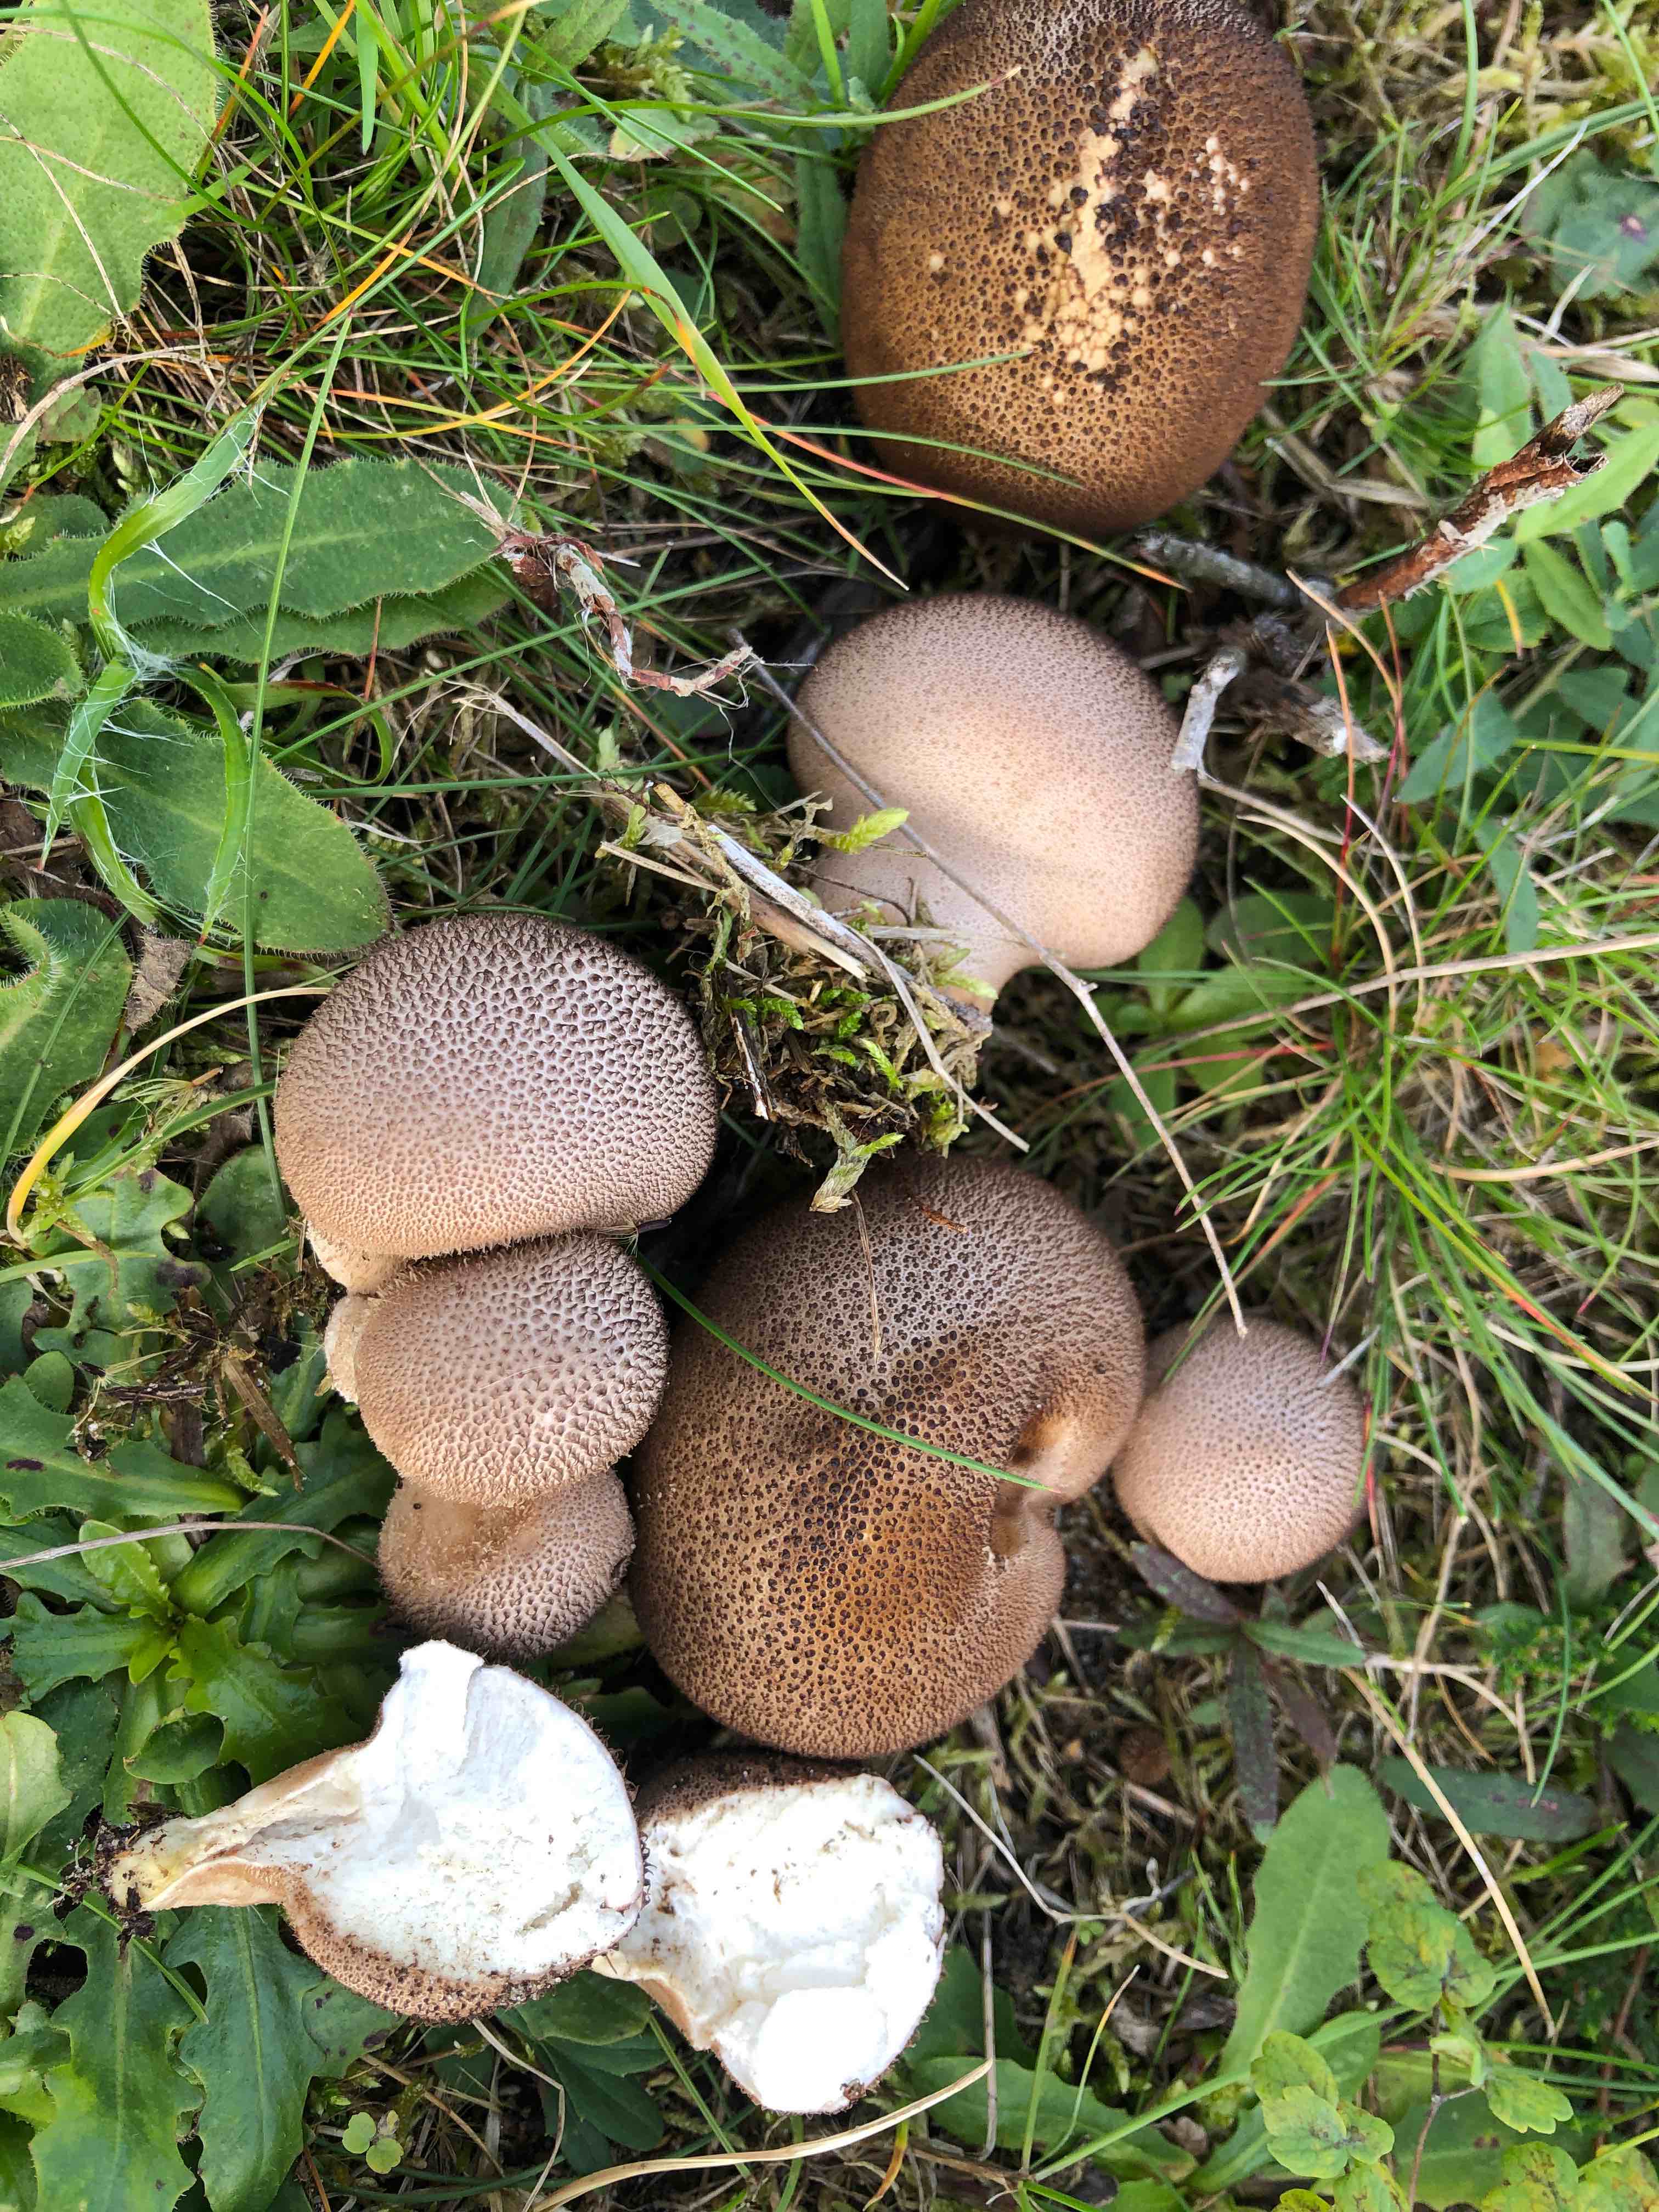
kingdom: Fungi
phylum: Basidiomycota
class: Agaricomycetes
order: Agaricales
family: Lycoperdaceae
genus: Lycoperdon
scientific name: Lycoperdon nigrescens
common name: sortagtig støvbold
